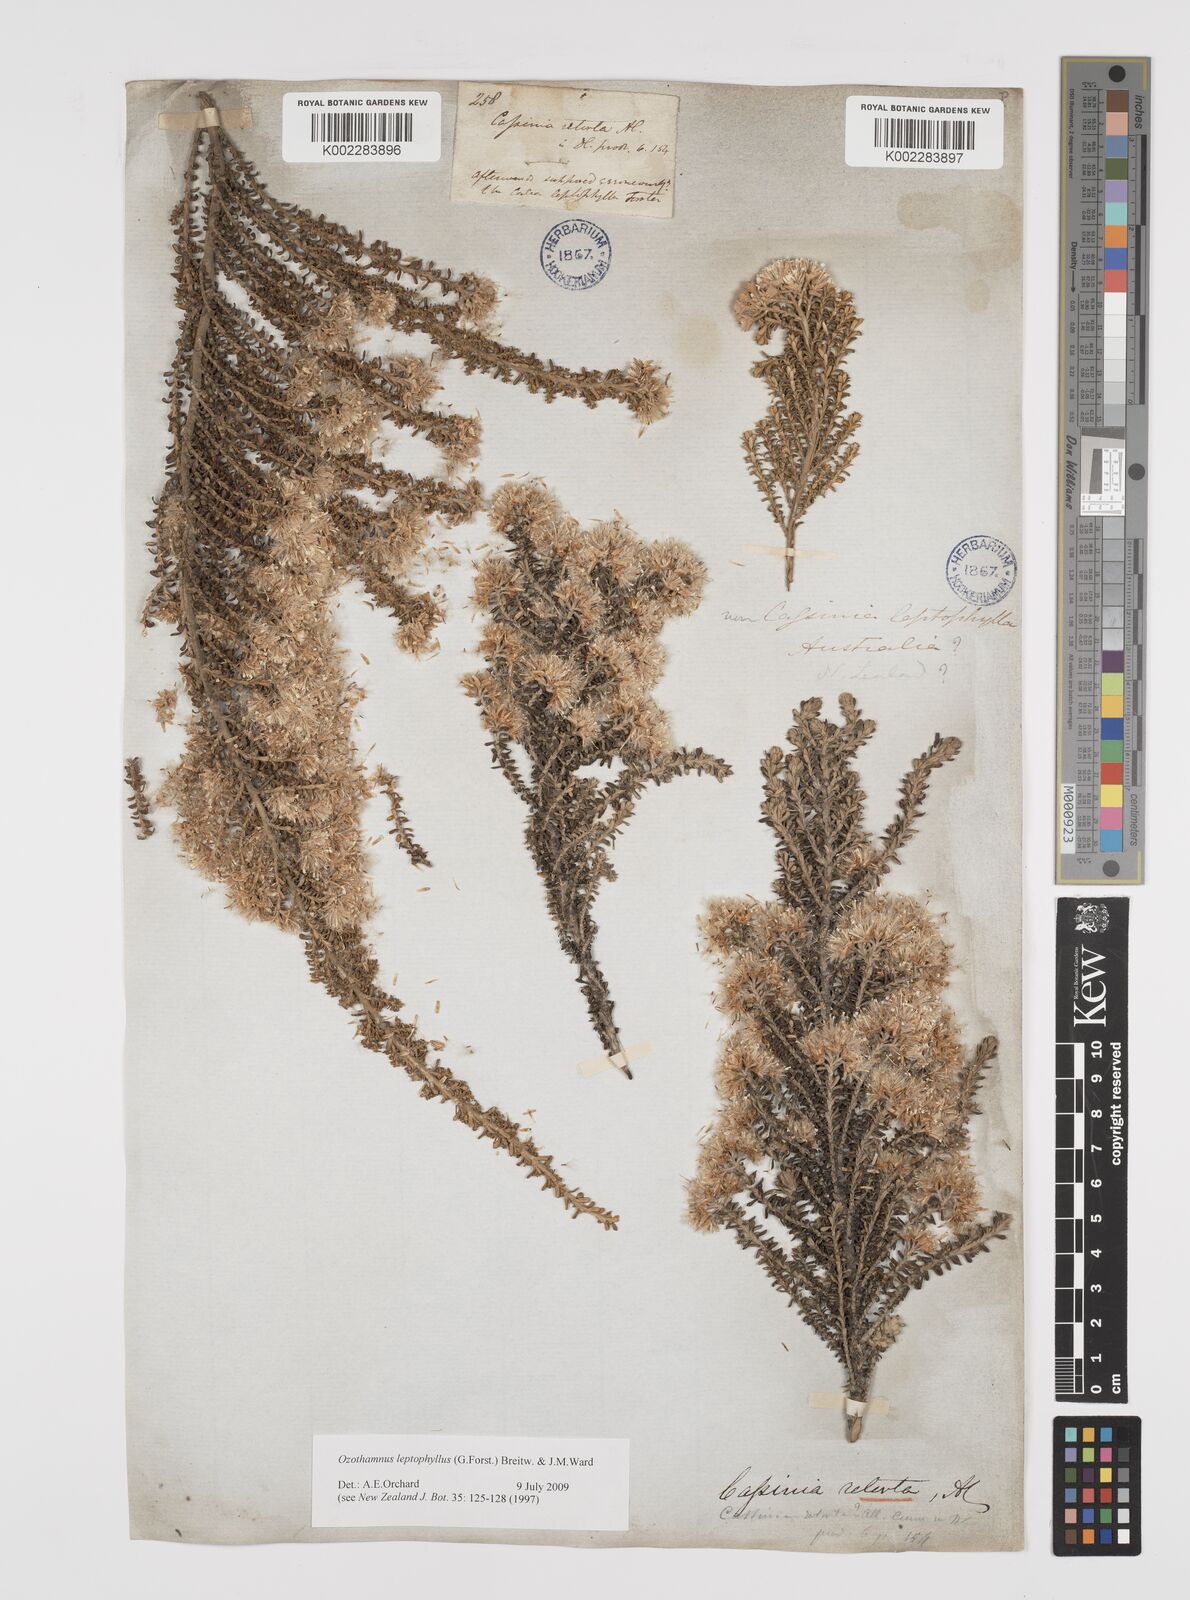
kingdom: Plantae
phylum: Tracheophyta
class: Magnoliopsida
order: Asterales
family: Asteraceae
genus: Ozothamnus
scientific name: Ozothamnus leptophyllus
